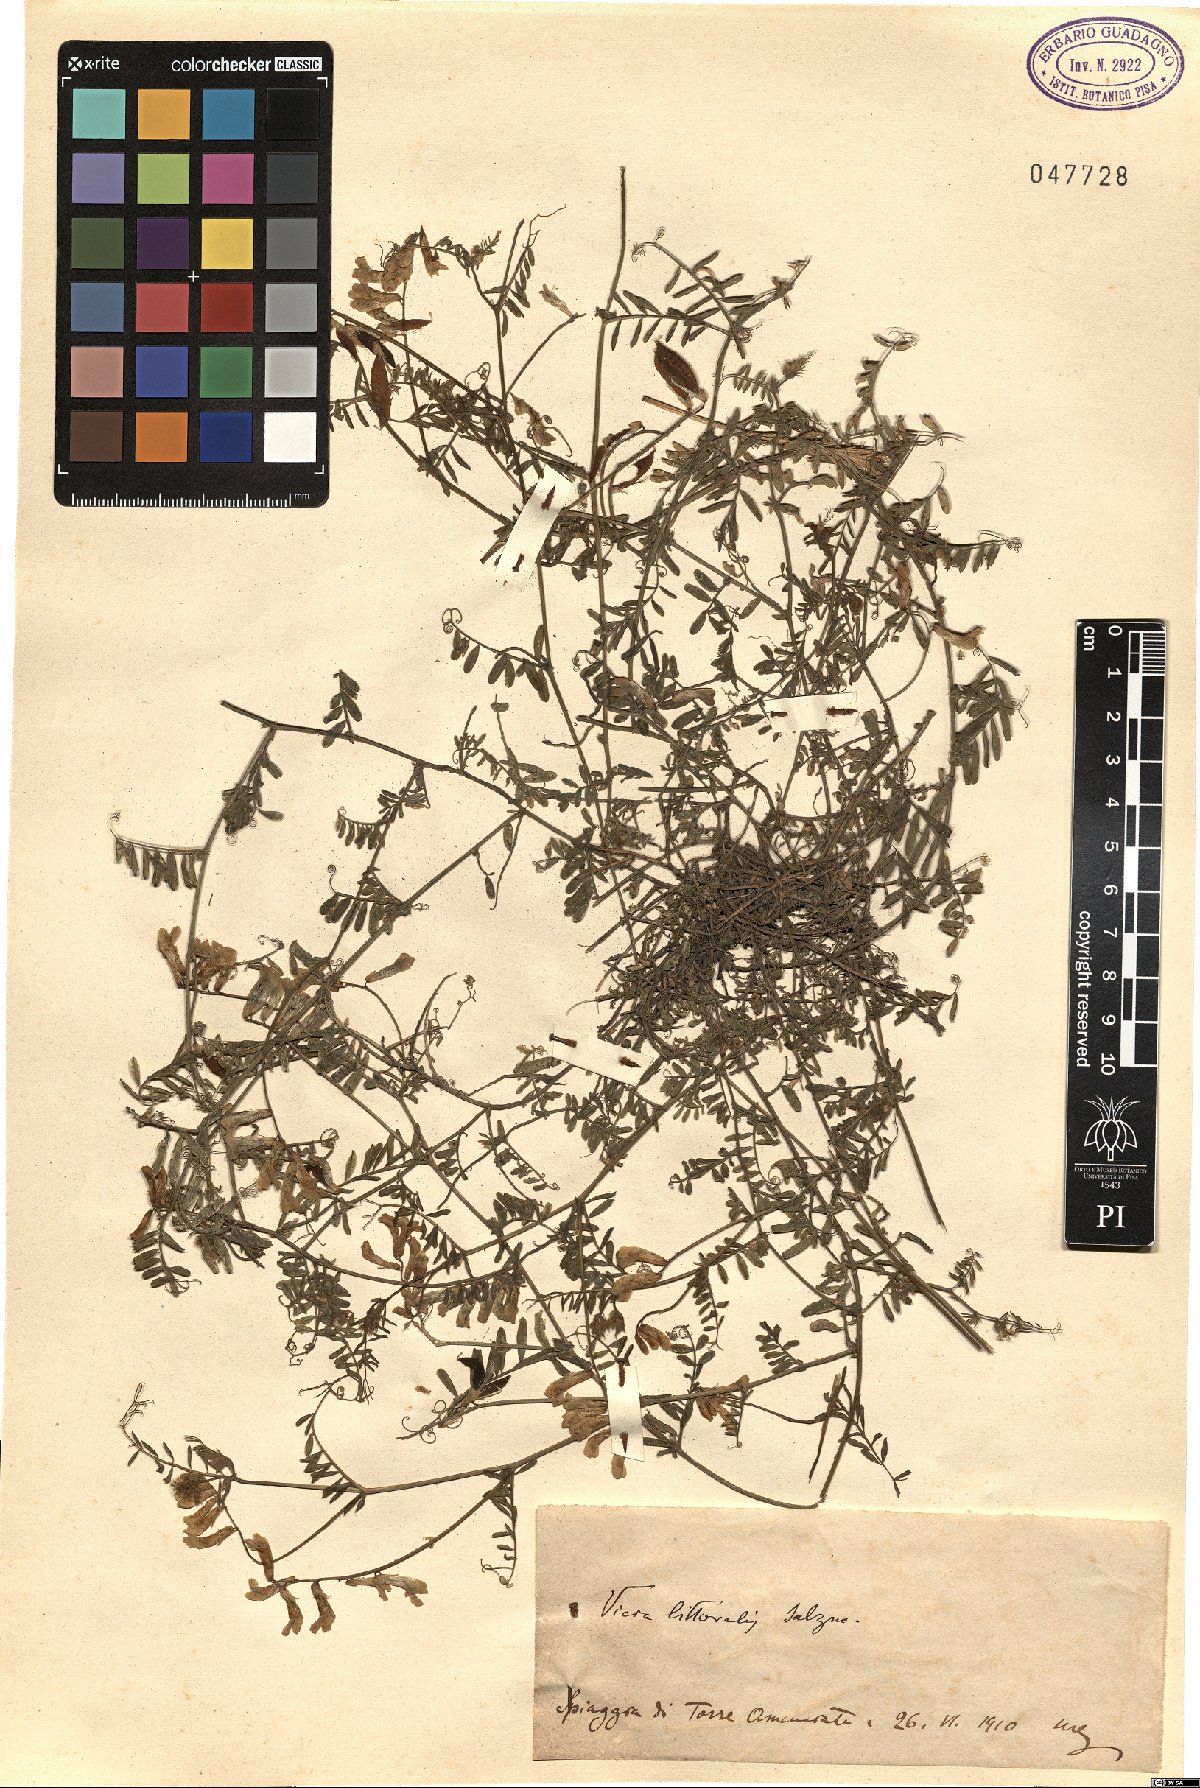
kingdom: Plantae
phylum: Tracheophyta
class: Magnoliopsida
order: Fabales
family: Fabaceae
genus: Vicia
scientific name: Vicia villosa
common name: Fodder vetch
